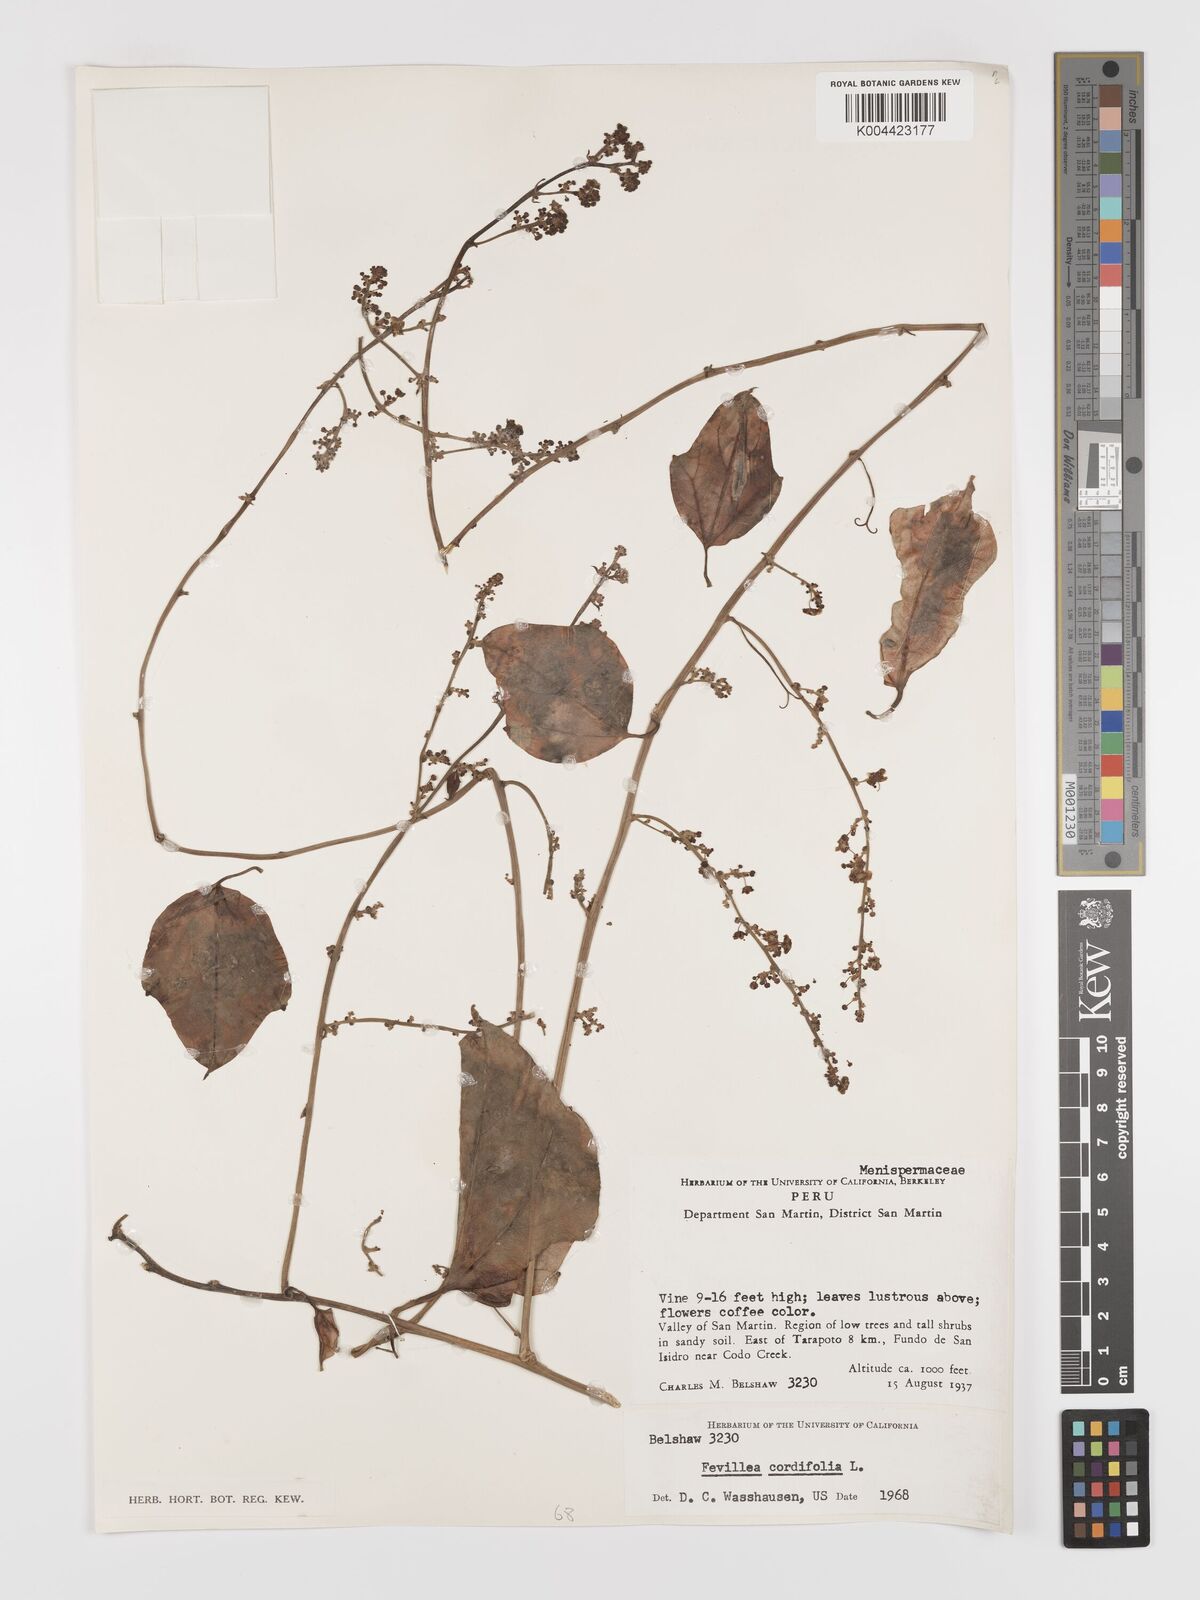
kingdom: Plantae
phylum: Tracheophyta
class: Magnoliopsida
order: Cucurbitales
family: Cucurbitaceae
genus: Fevillea
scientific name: Fevillea
